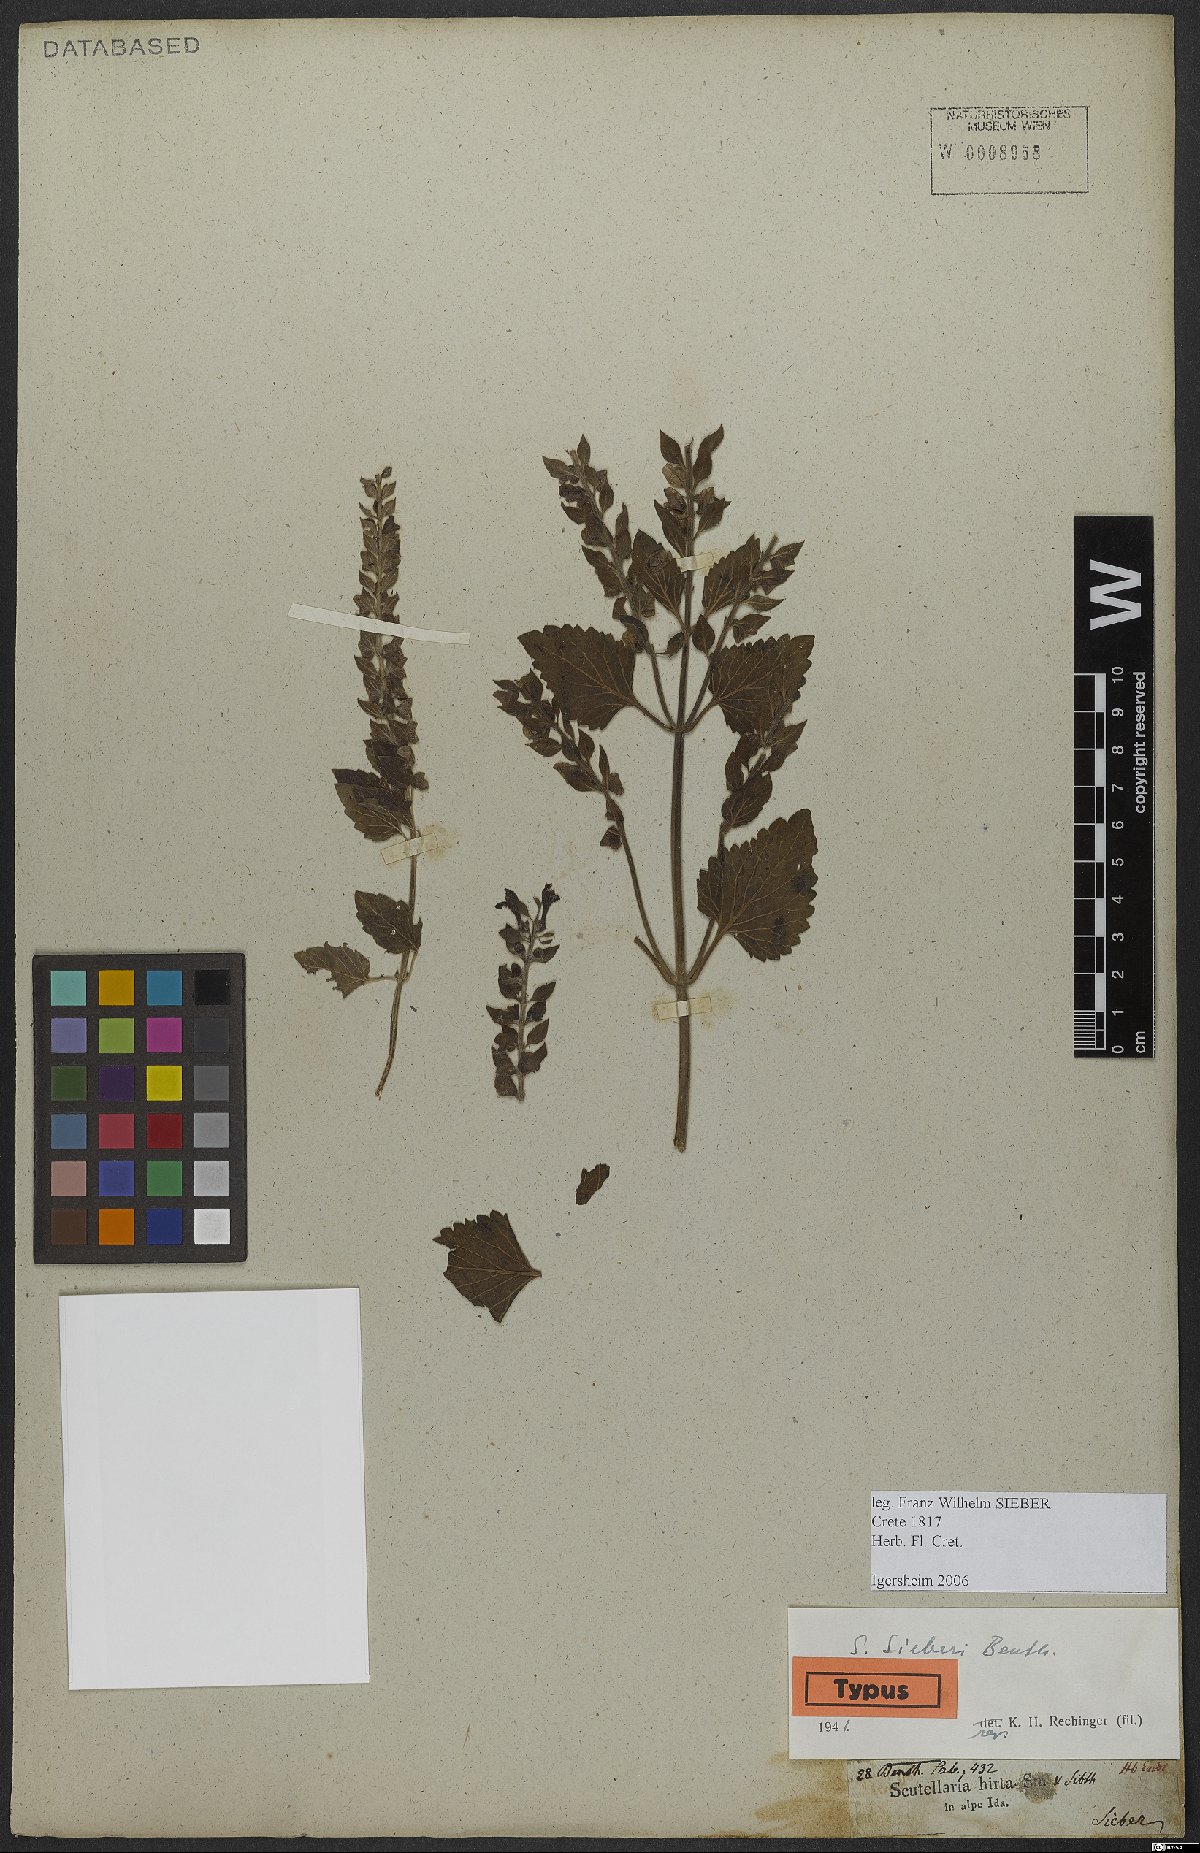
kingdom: Plantae
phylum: Tracheophyta
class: Magnoliopsida
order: Lamiales
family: Lamiaceae
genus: Scutellaria
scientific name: Scutellaria sieberi
